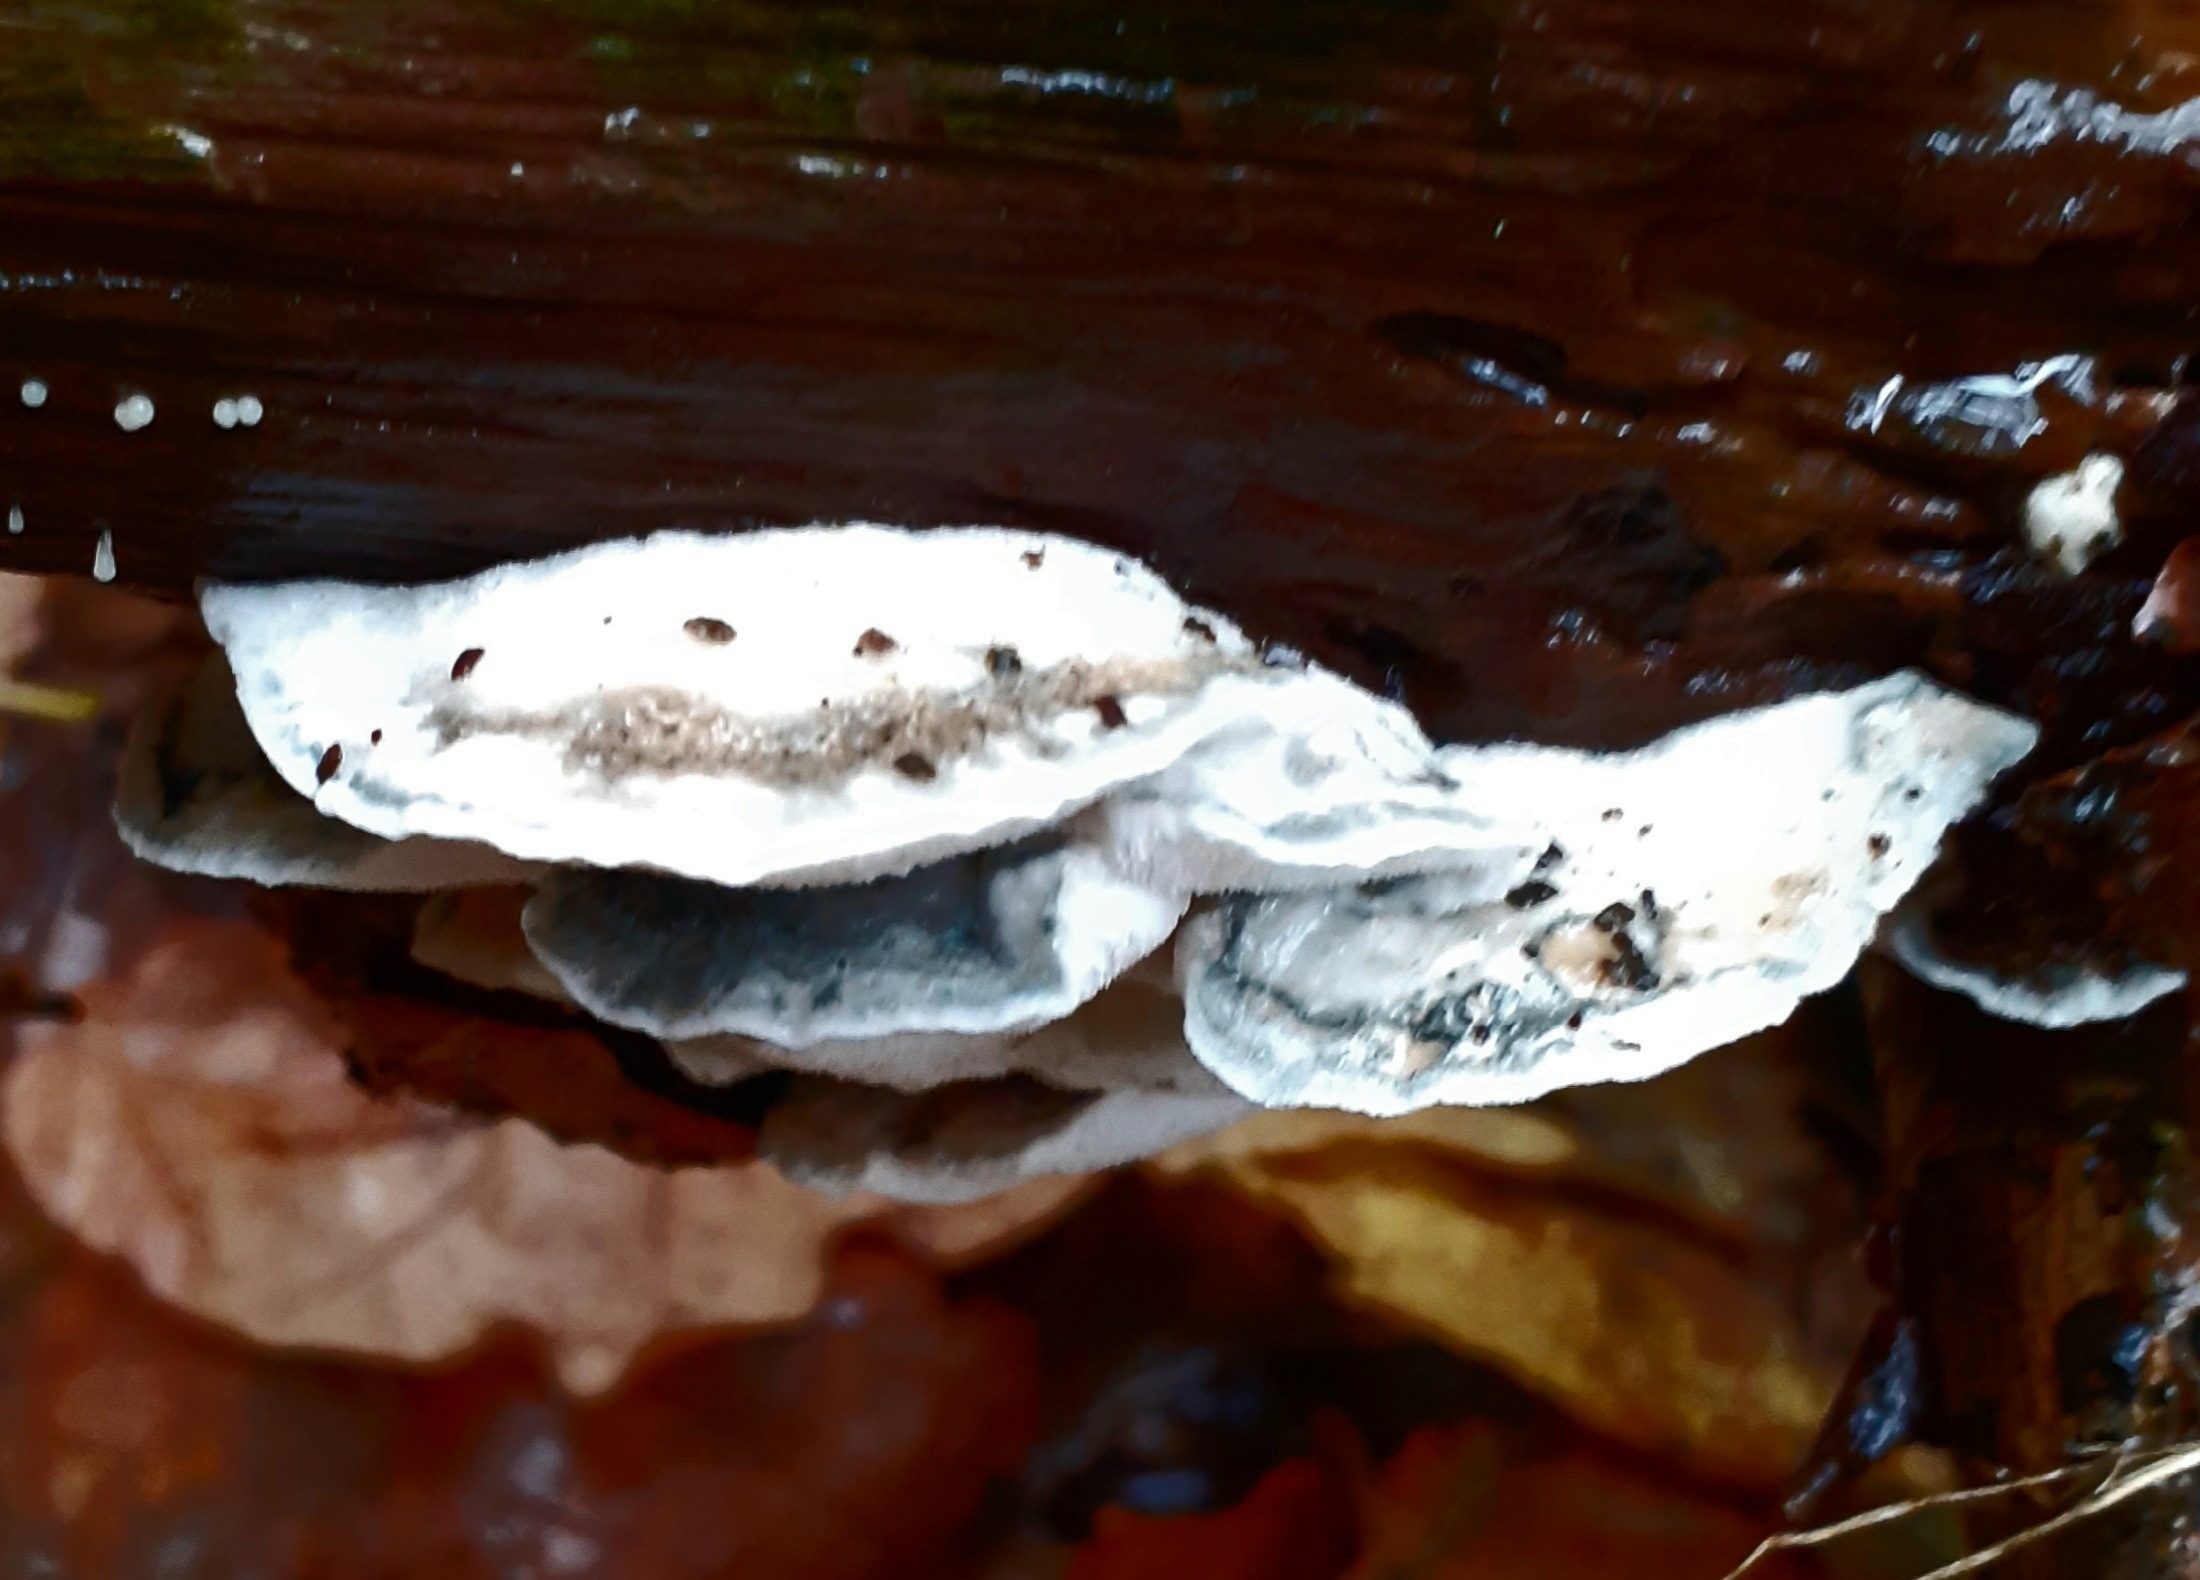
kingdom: Fungi
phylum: Basidiomycota
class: Agaricomycetes
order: Polyporales
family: Polyporaceae
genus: Cyanosporus
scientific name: Cyanosporus alni
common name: blegblå kødporesvamp
